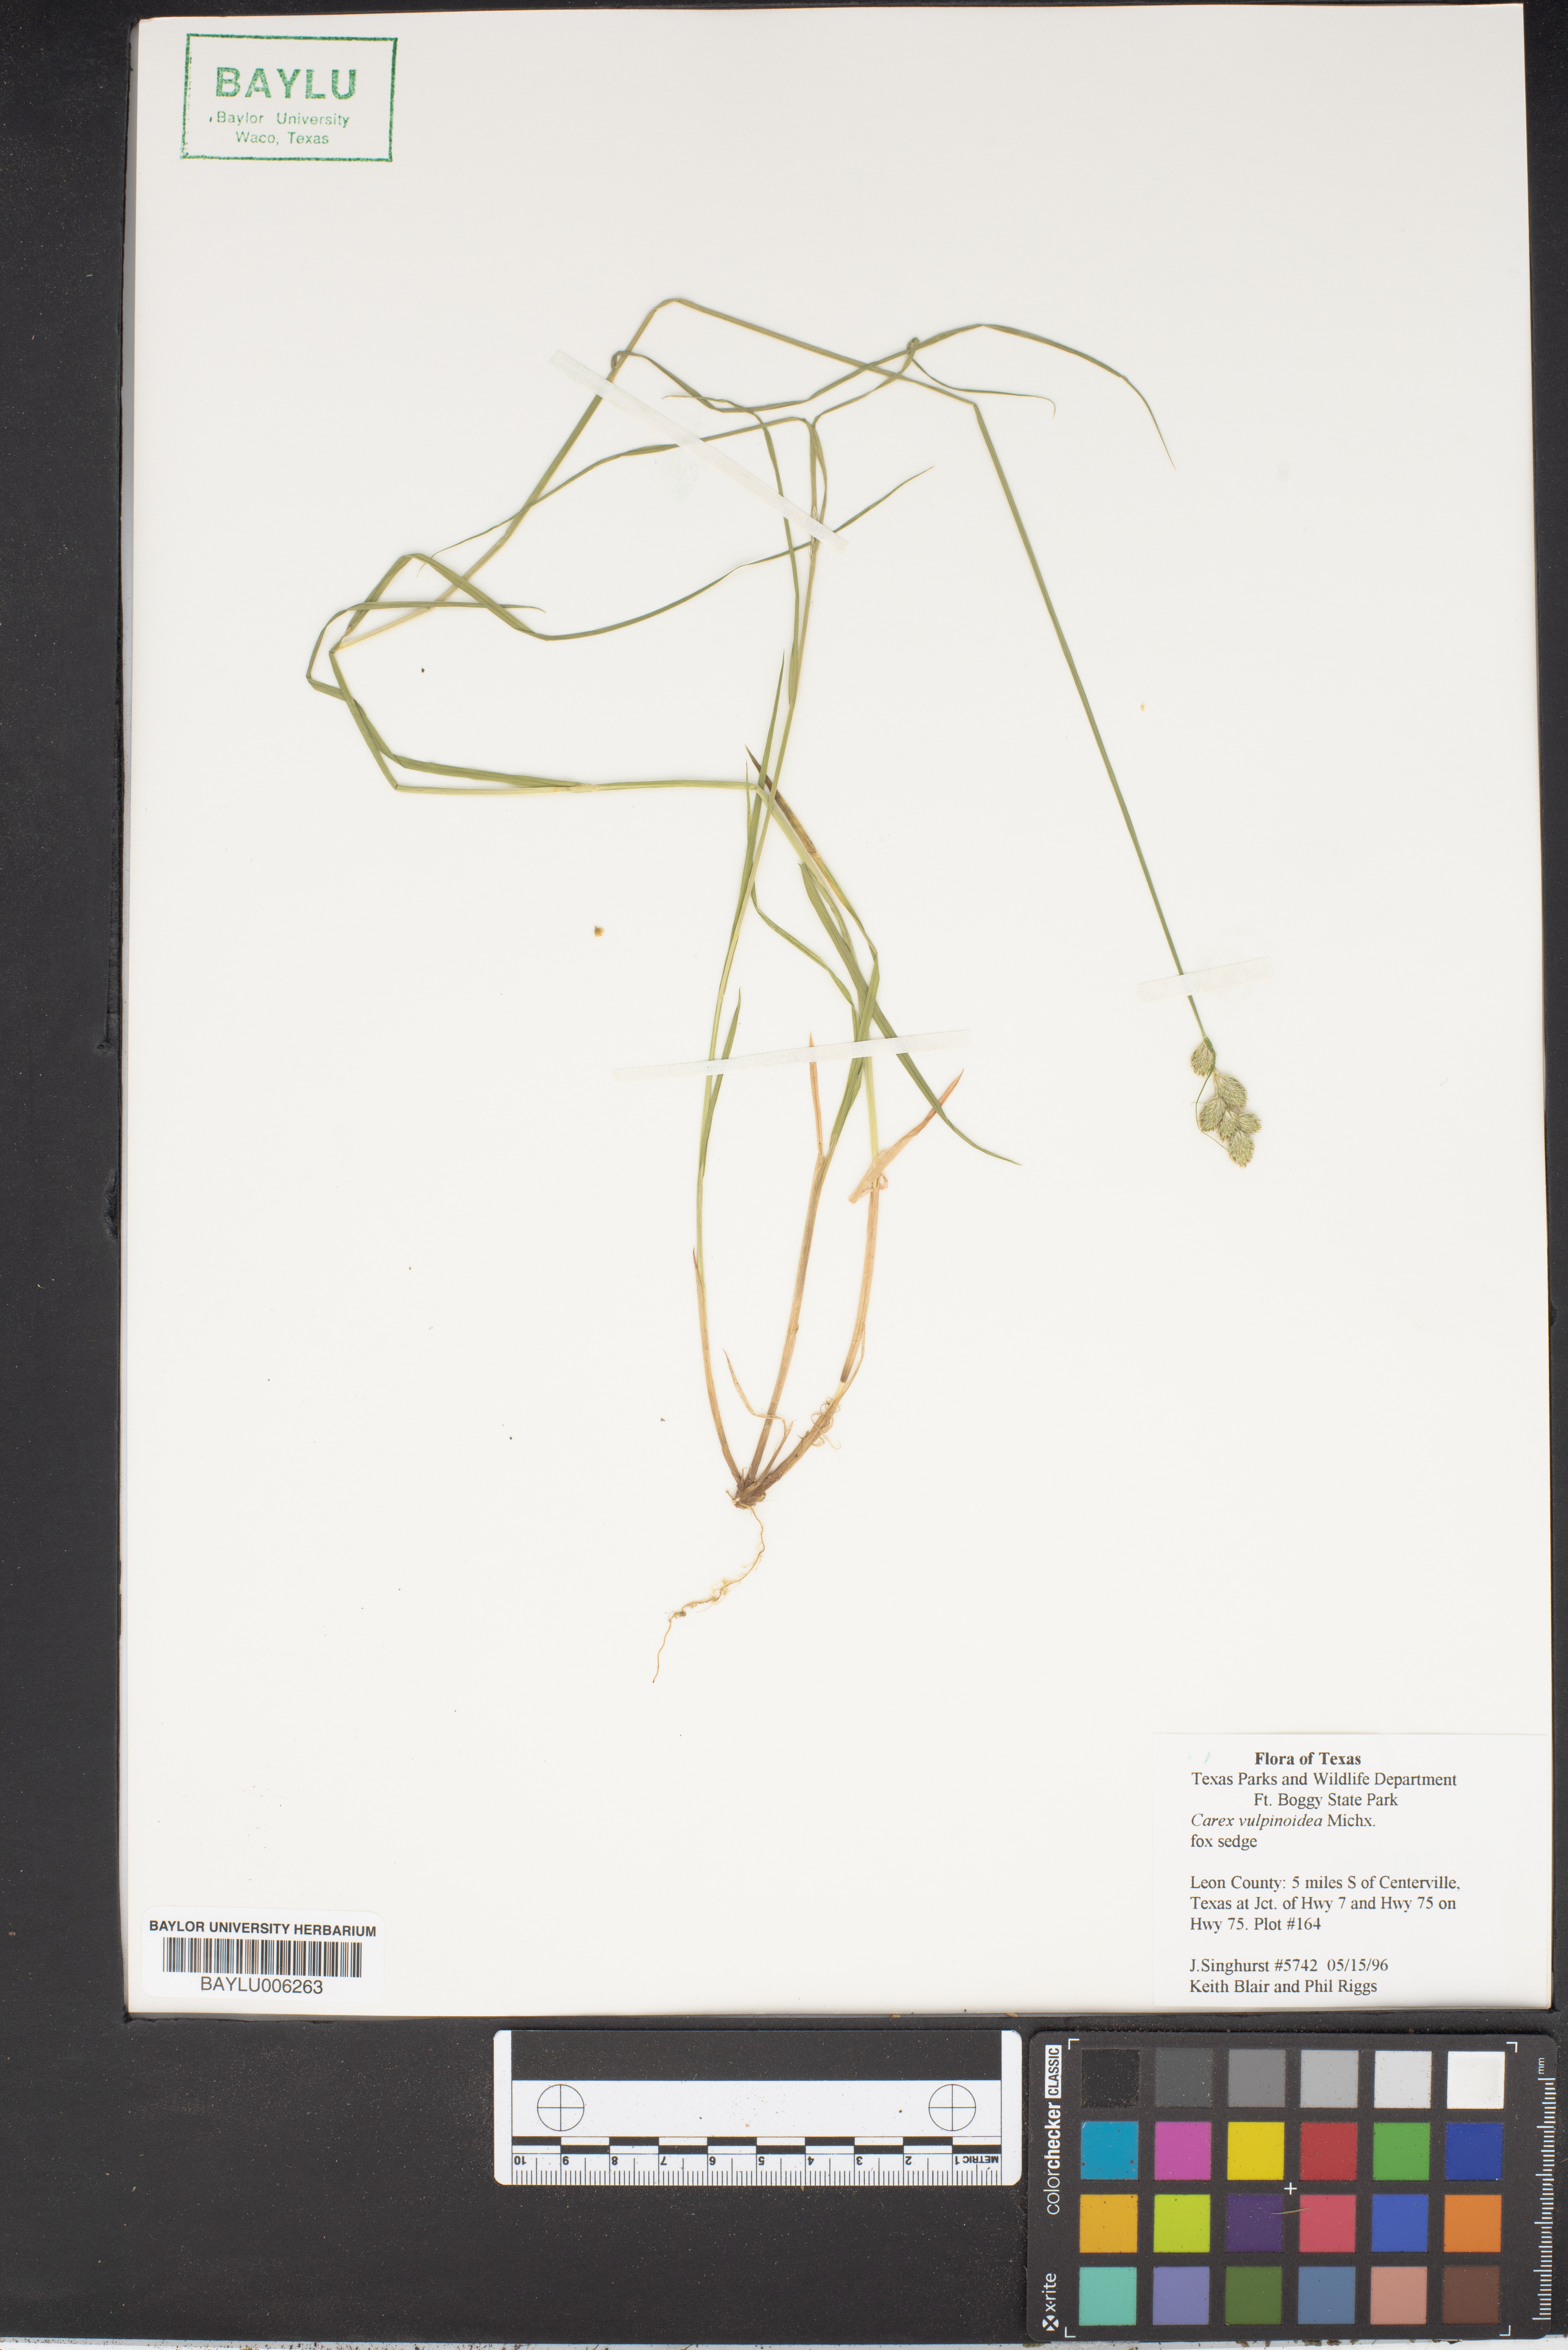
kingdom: Plantae
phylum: Tracheophyta
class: Liliopsida
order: Poales
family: Cyperaceae
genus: Carex
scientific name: Carex vulpinoidea
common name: American fox-sedge
